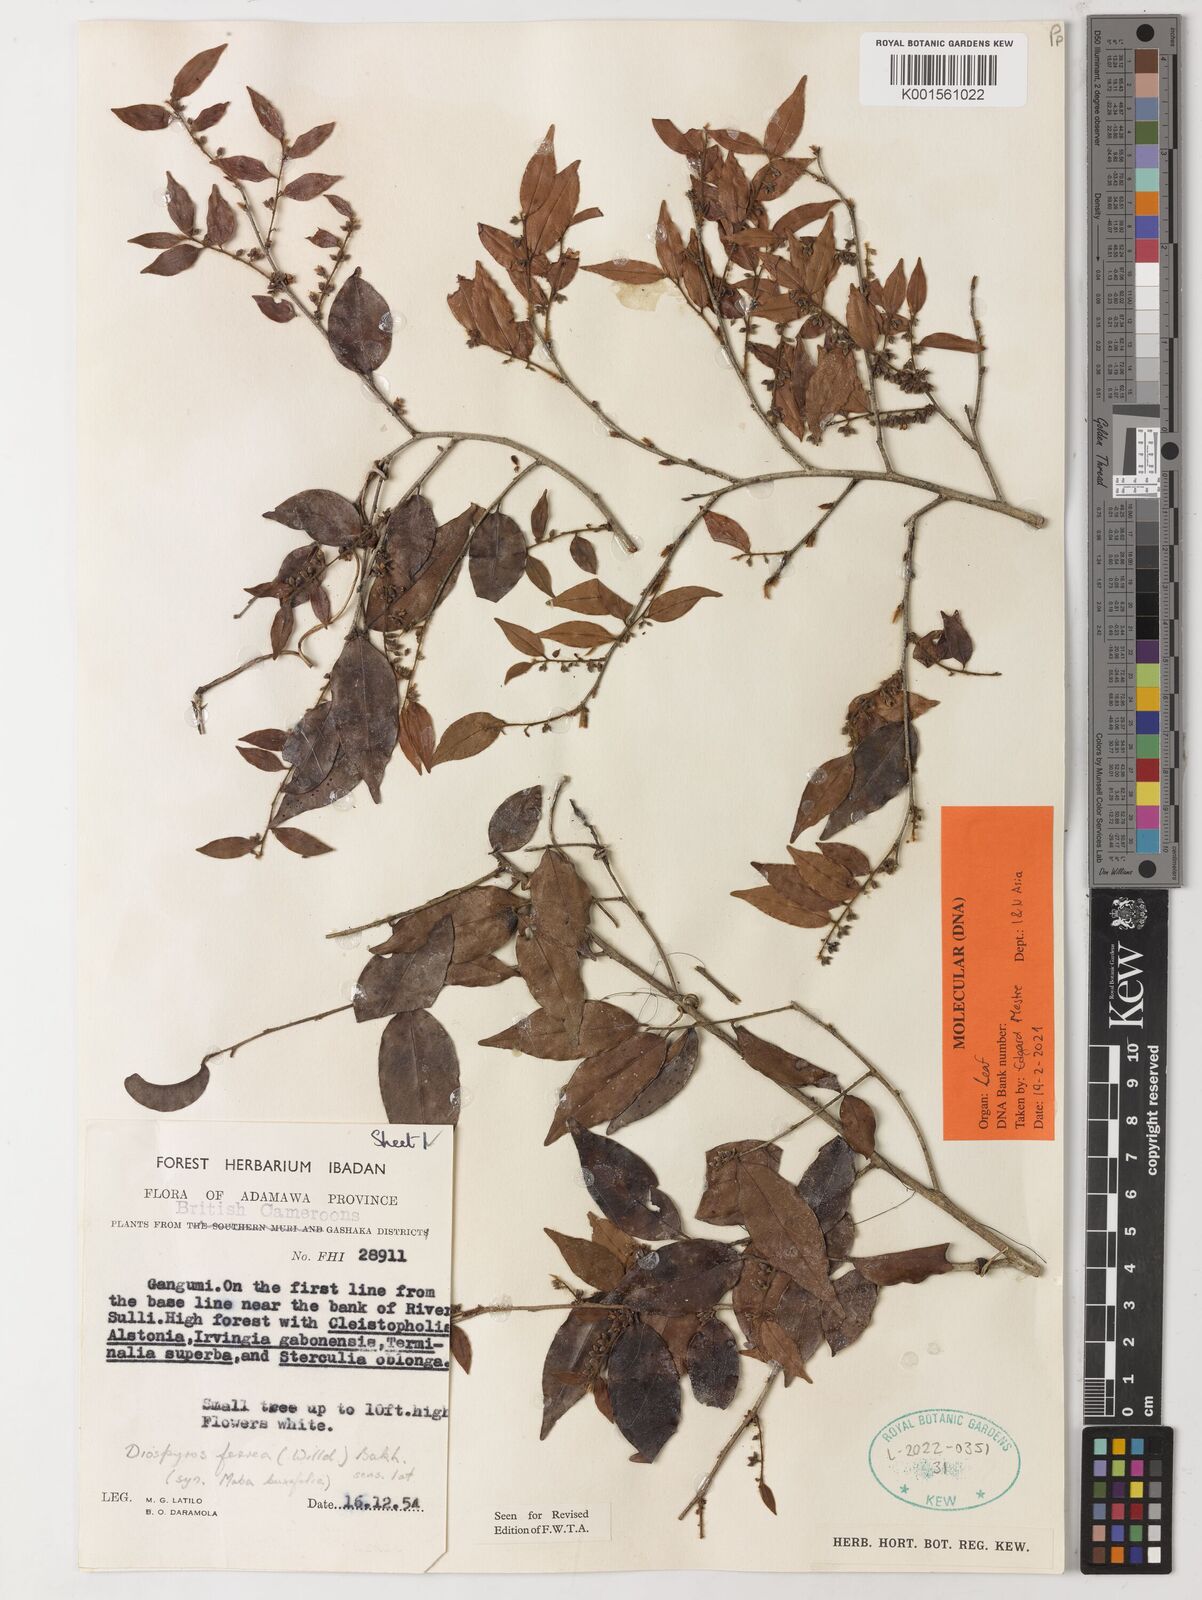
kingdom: Plantae
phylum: Tracheophyta
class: Magnoliopsida
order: Ericales
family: Ebenaceae
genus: Diospyros
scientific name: Diospyros ferrea
